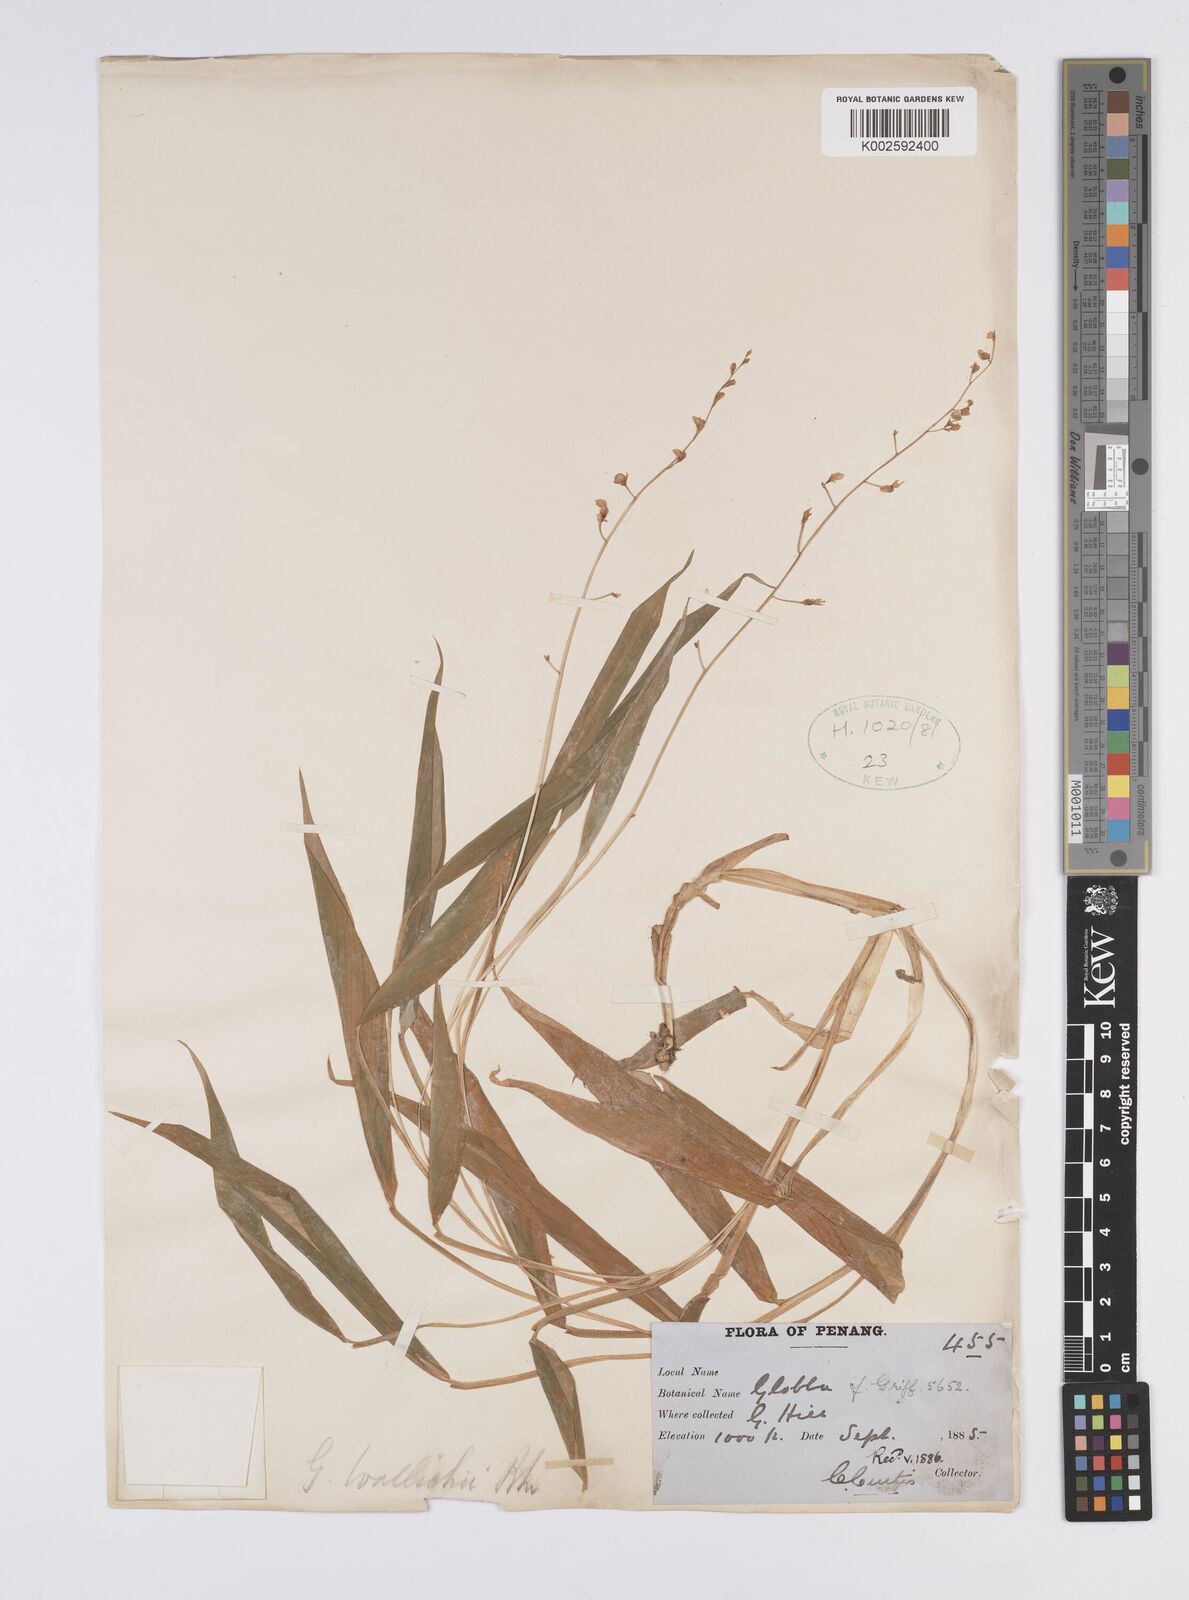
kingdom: Plantae
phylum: Tracheophyta
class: Liliopsida
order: Zingiberales
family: Zingiberaceae
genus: Globba
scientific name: Globba pendula
